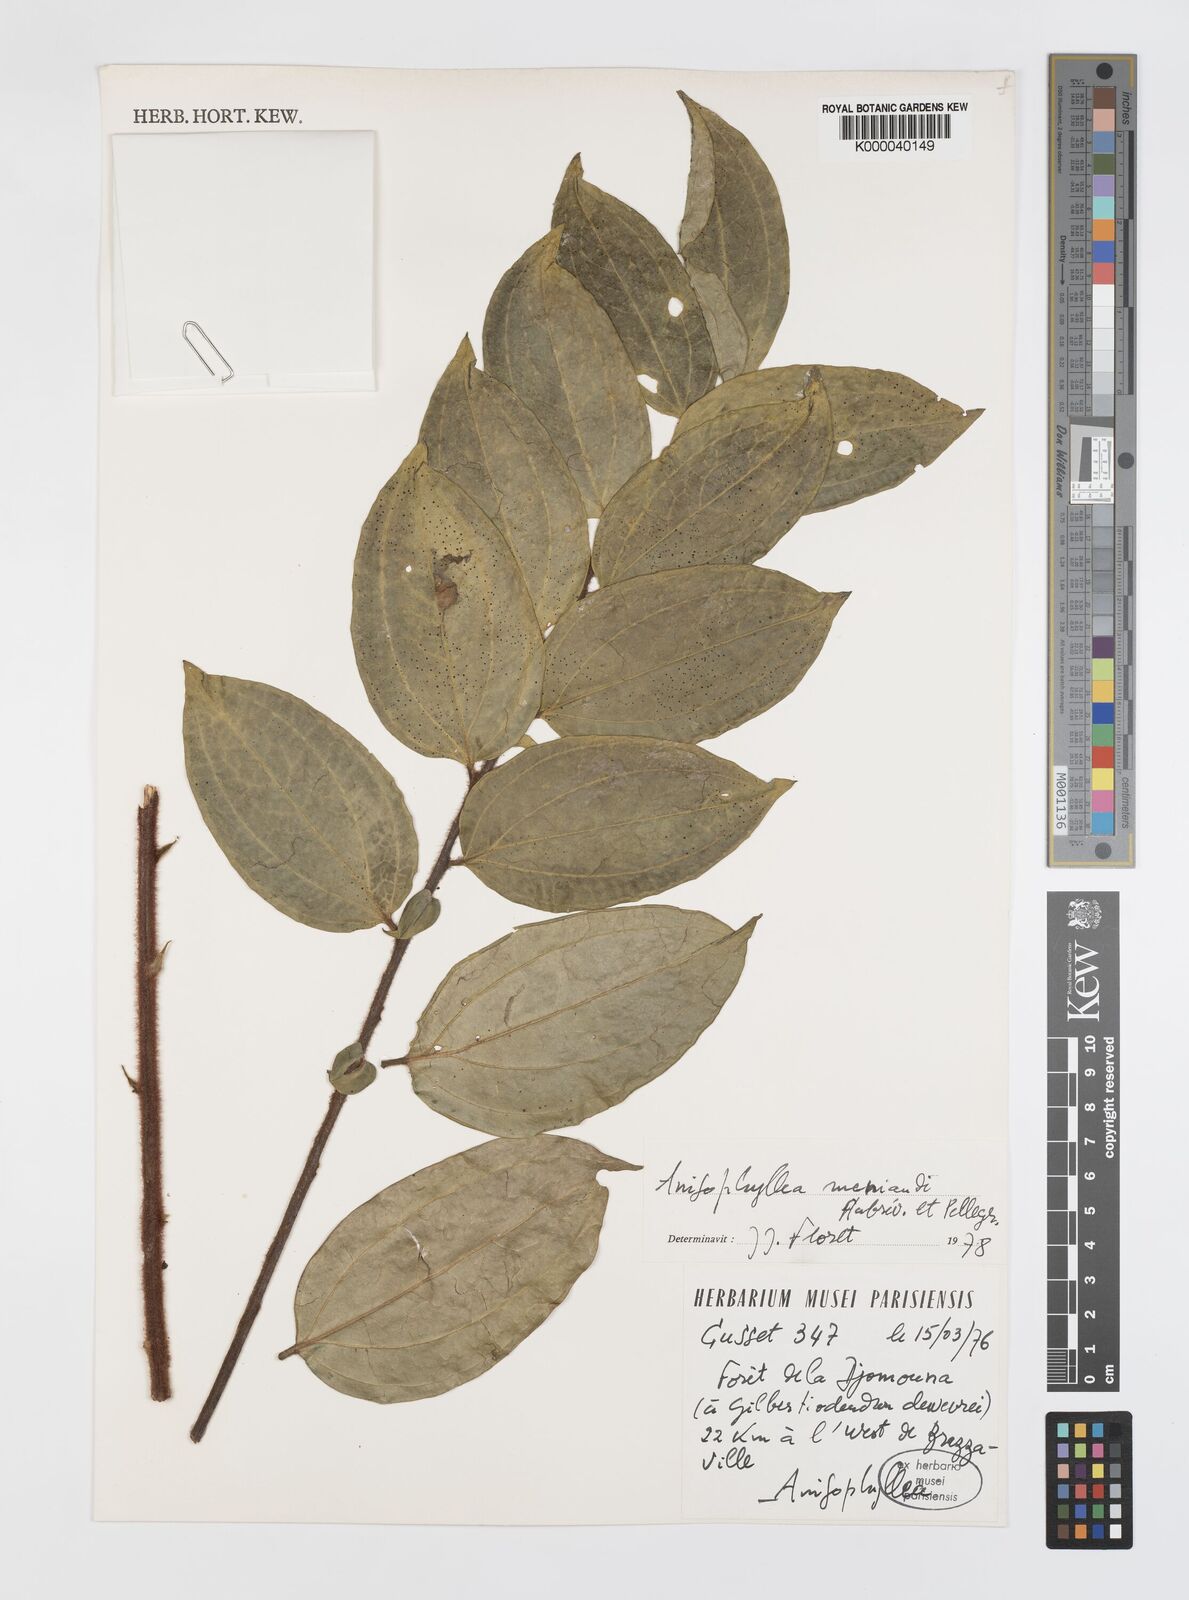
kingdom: Plantae
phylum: Tracheophyta
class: Magnoliopsida
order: Cucurbitales
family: Anisophylleaceae
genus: Anisophyllea
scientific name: Anisophyllea
